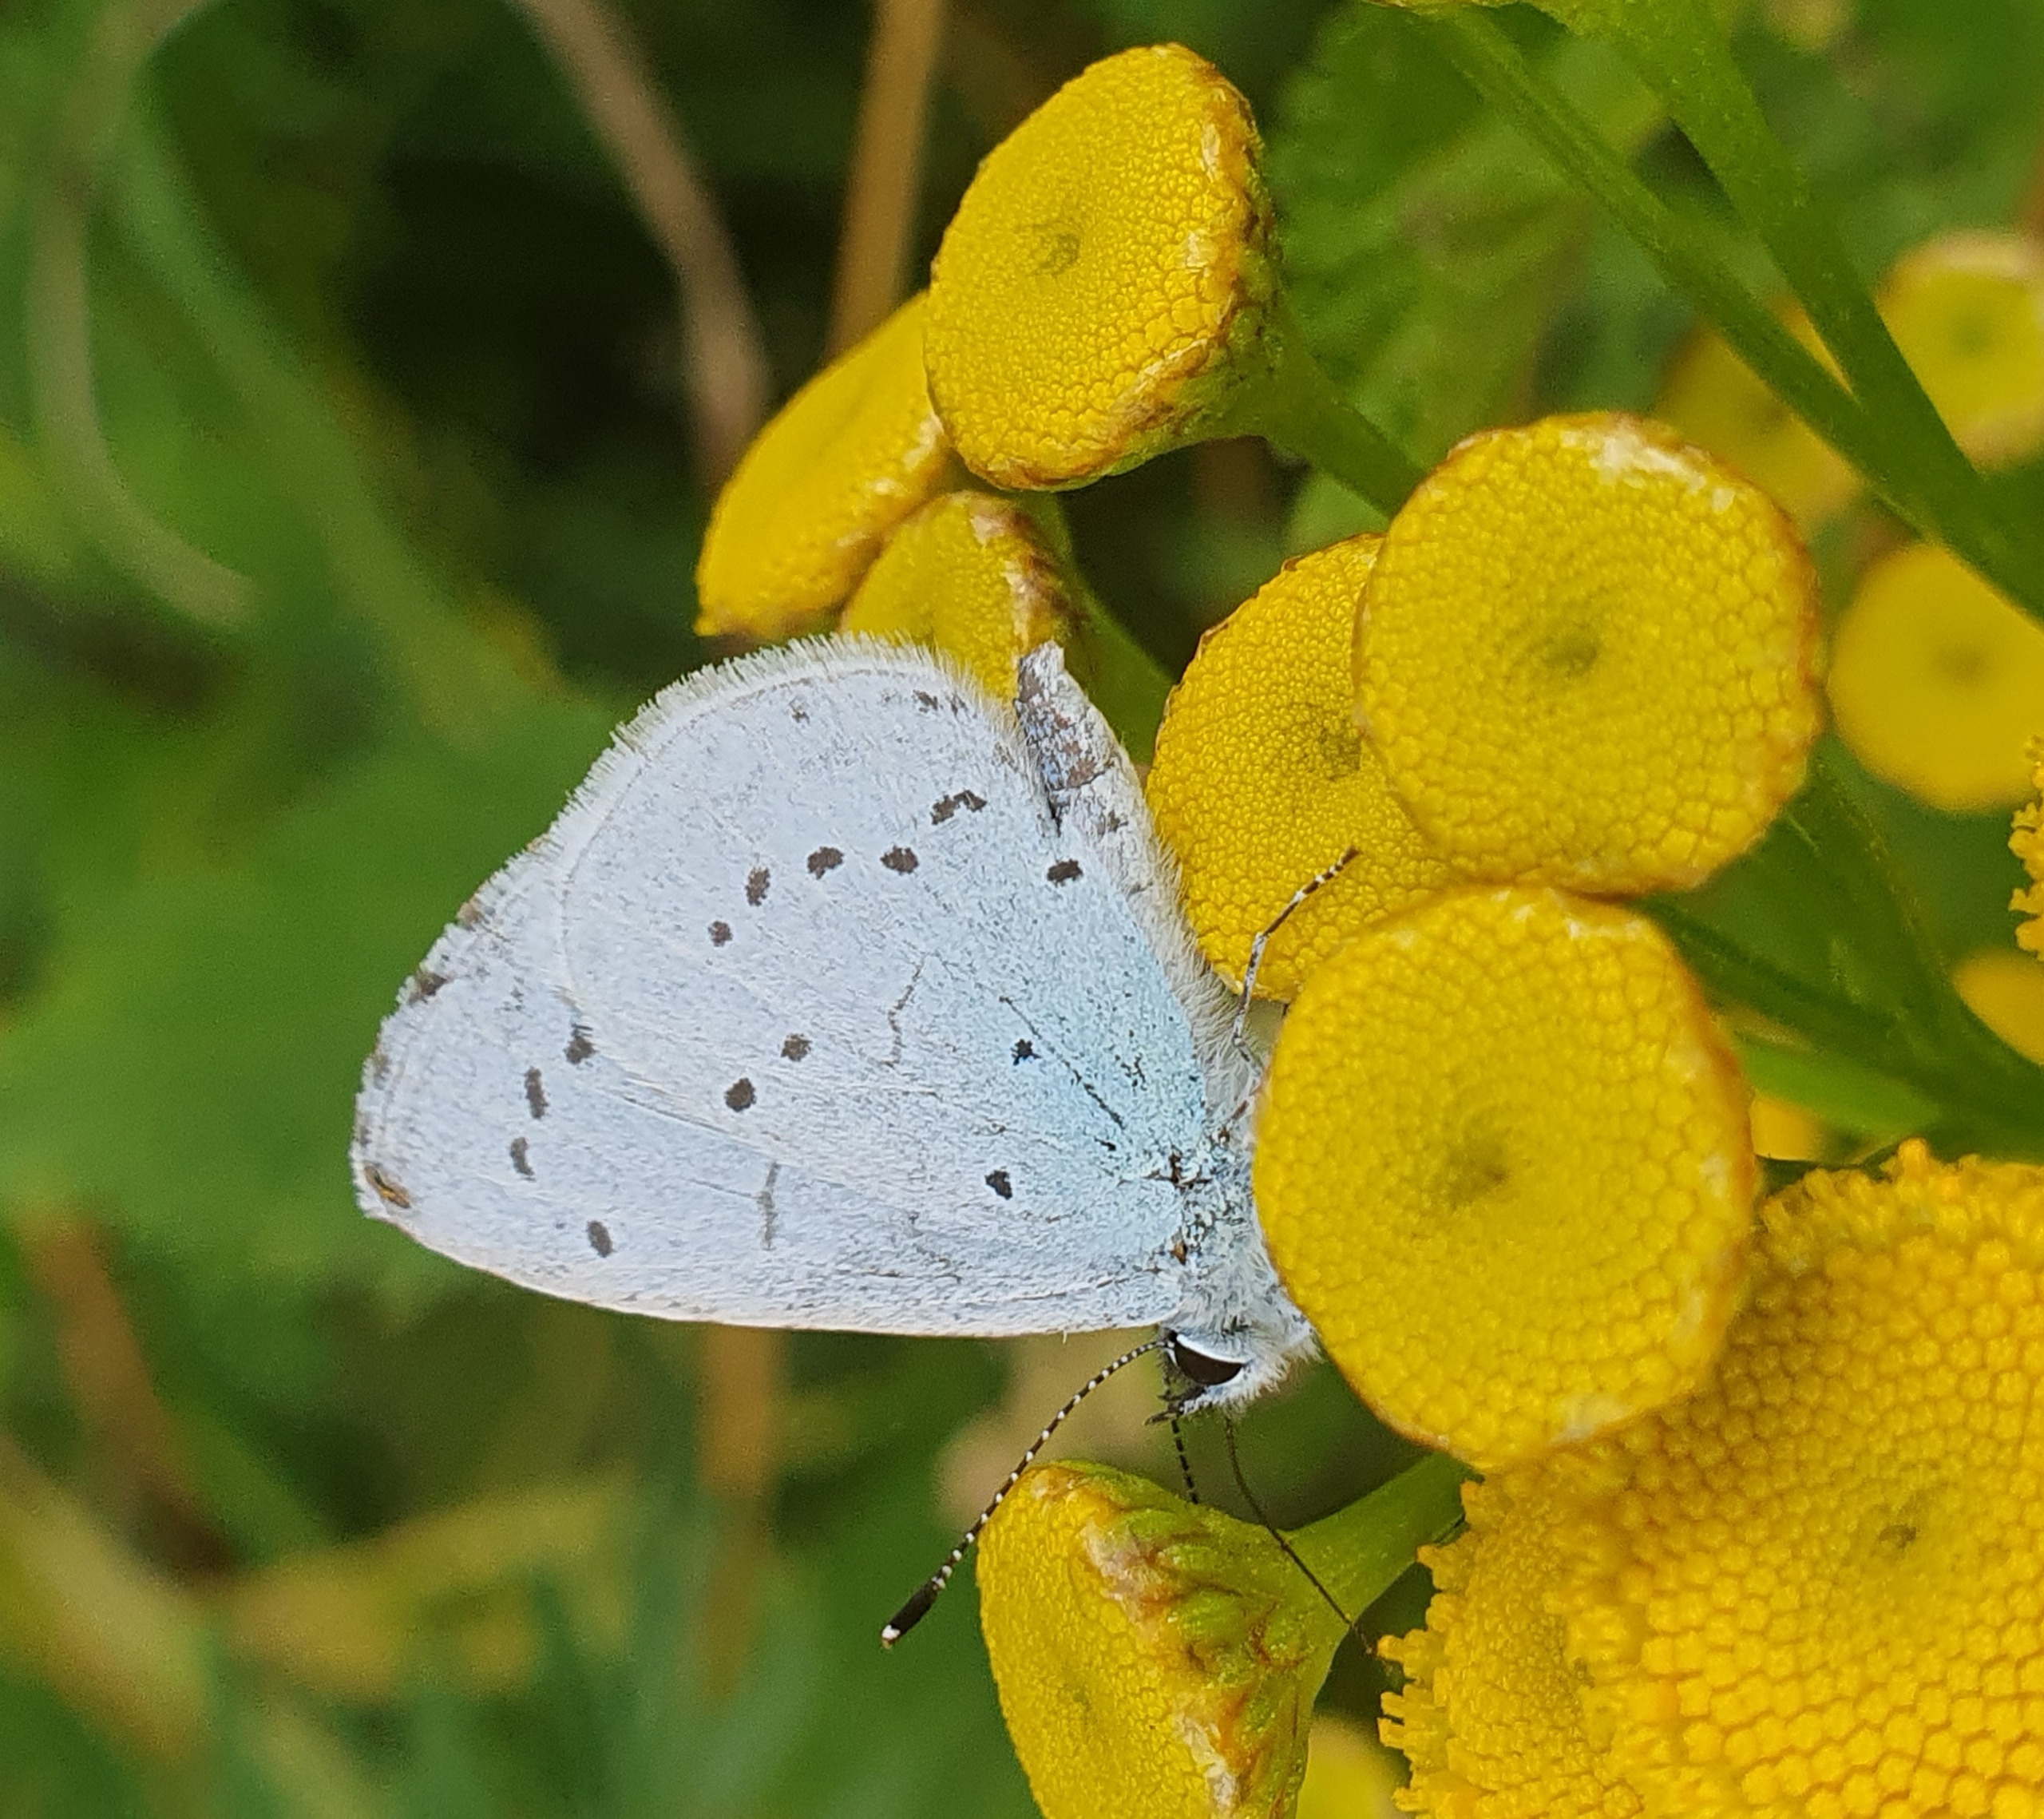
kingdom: Animalia
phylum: Arthropoda
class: Insecta
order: Lepidoptera
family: Lycaenidae
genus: Celastrina
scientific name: Celastrina argiolus
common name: Skovblåfugl
